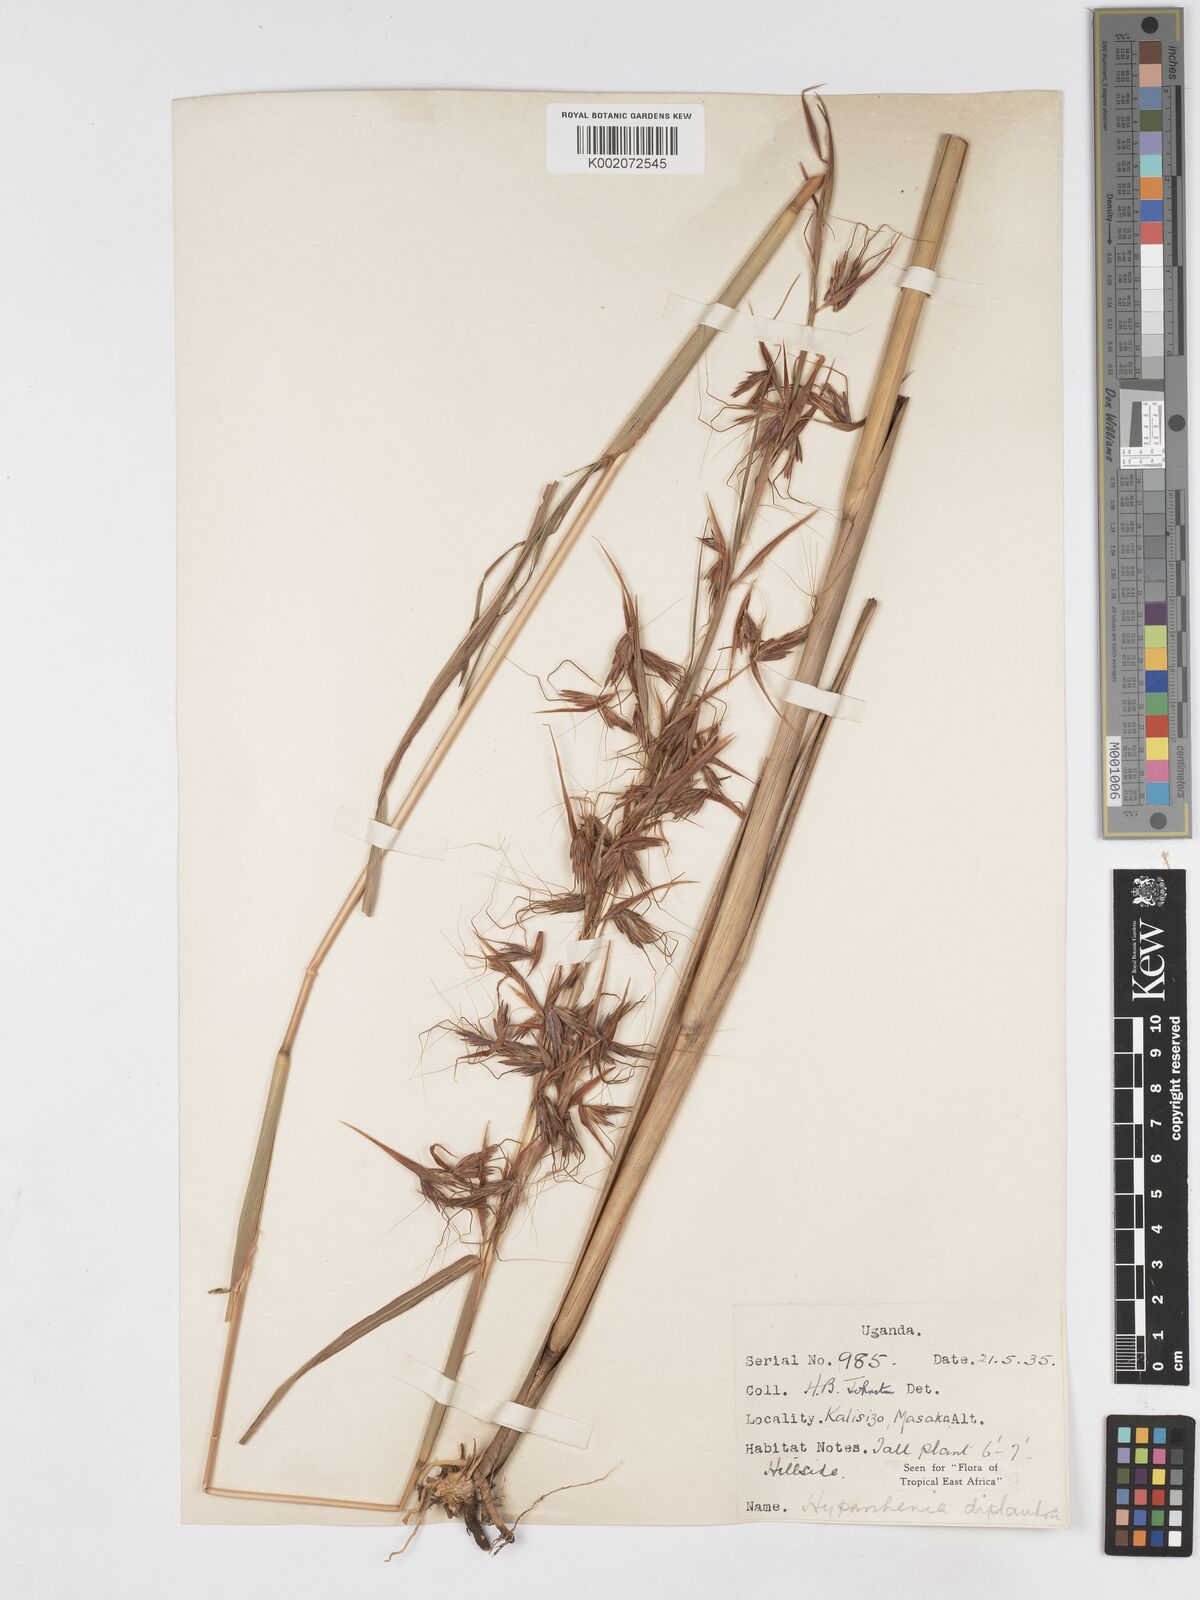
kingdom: Plantae
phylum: Tracheophyta
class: Liliopsida
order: Poales
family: Poaceae
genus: Hyparrhenia
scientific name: Hyparrhenia diplandra
